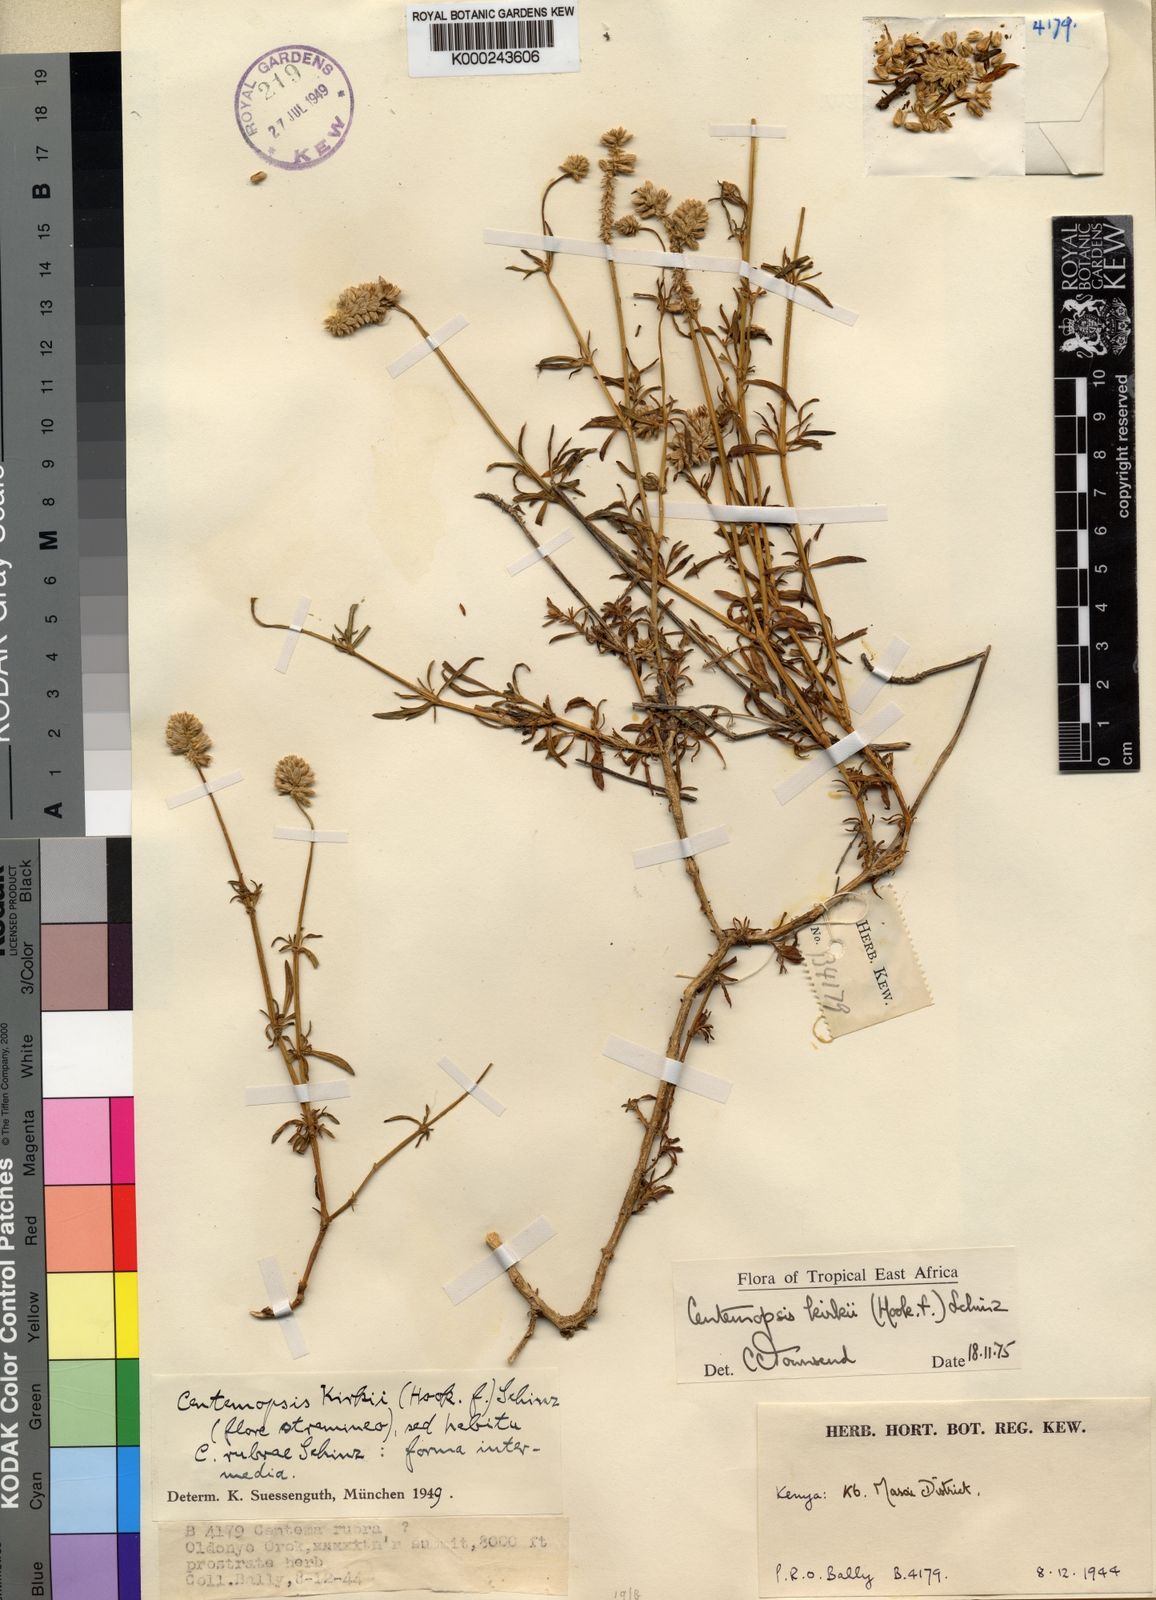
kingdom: Plantae
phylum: Tracheophyta
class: Magnoliopsida
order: Caryophyllales
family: Amaranthaceae
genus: Centemopsis
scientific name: Centemopsis kirkii
